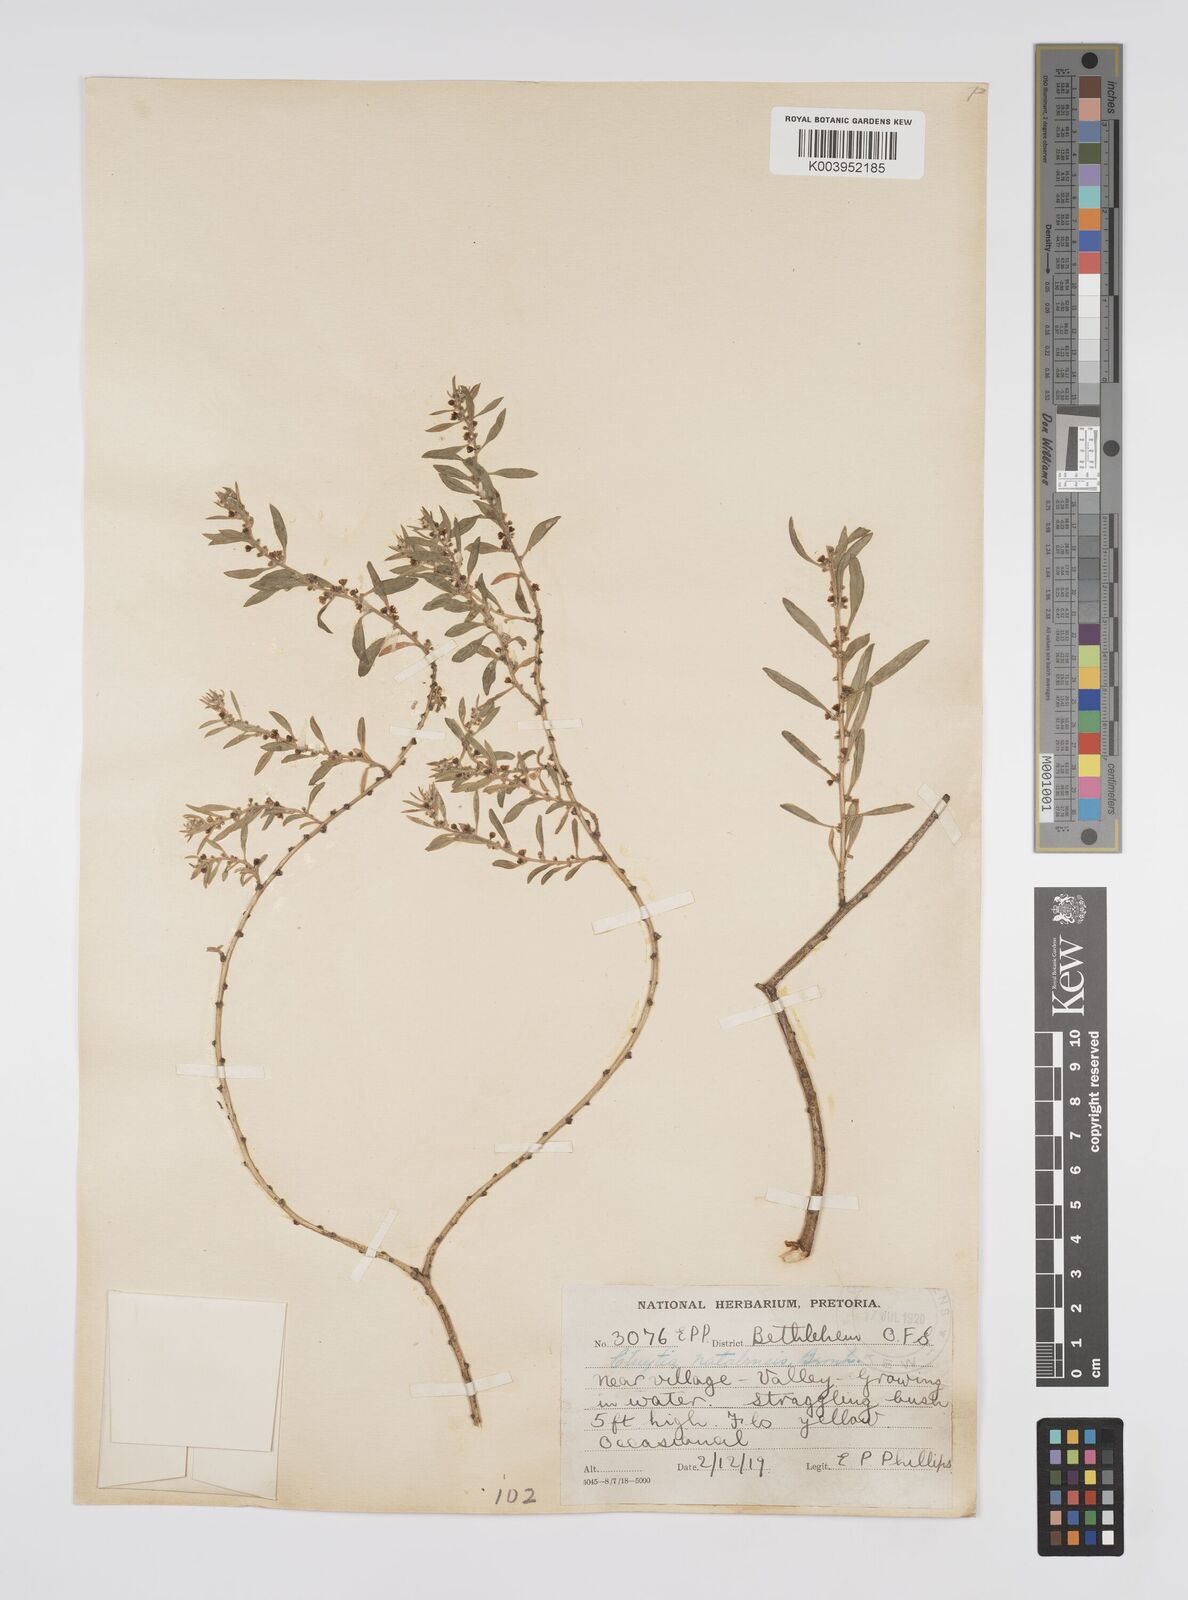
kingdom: Plantae
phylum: Tracheophyta
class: Magnoliopsida
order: Malpighiales
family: Peraceae
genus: Clutia
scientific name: Clutia natalensis
